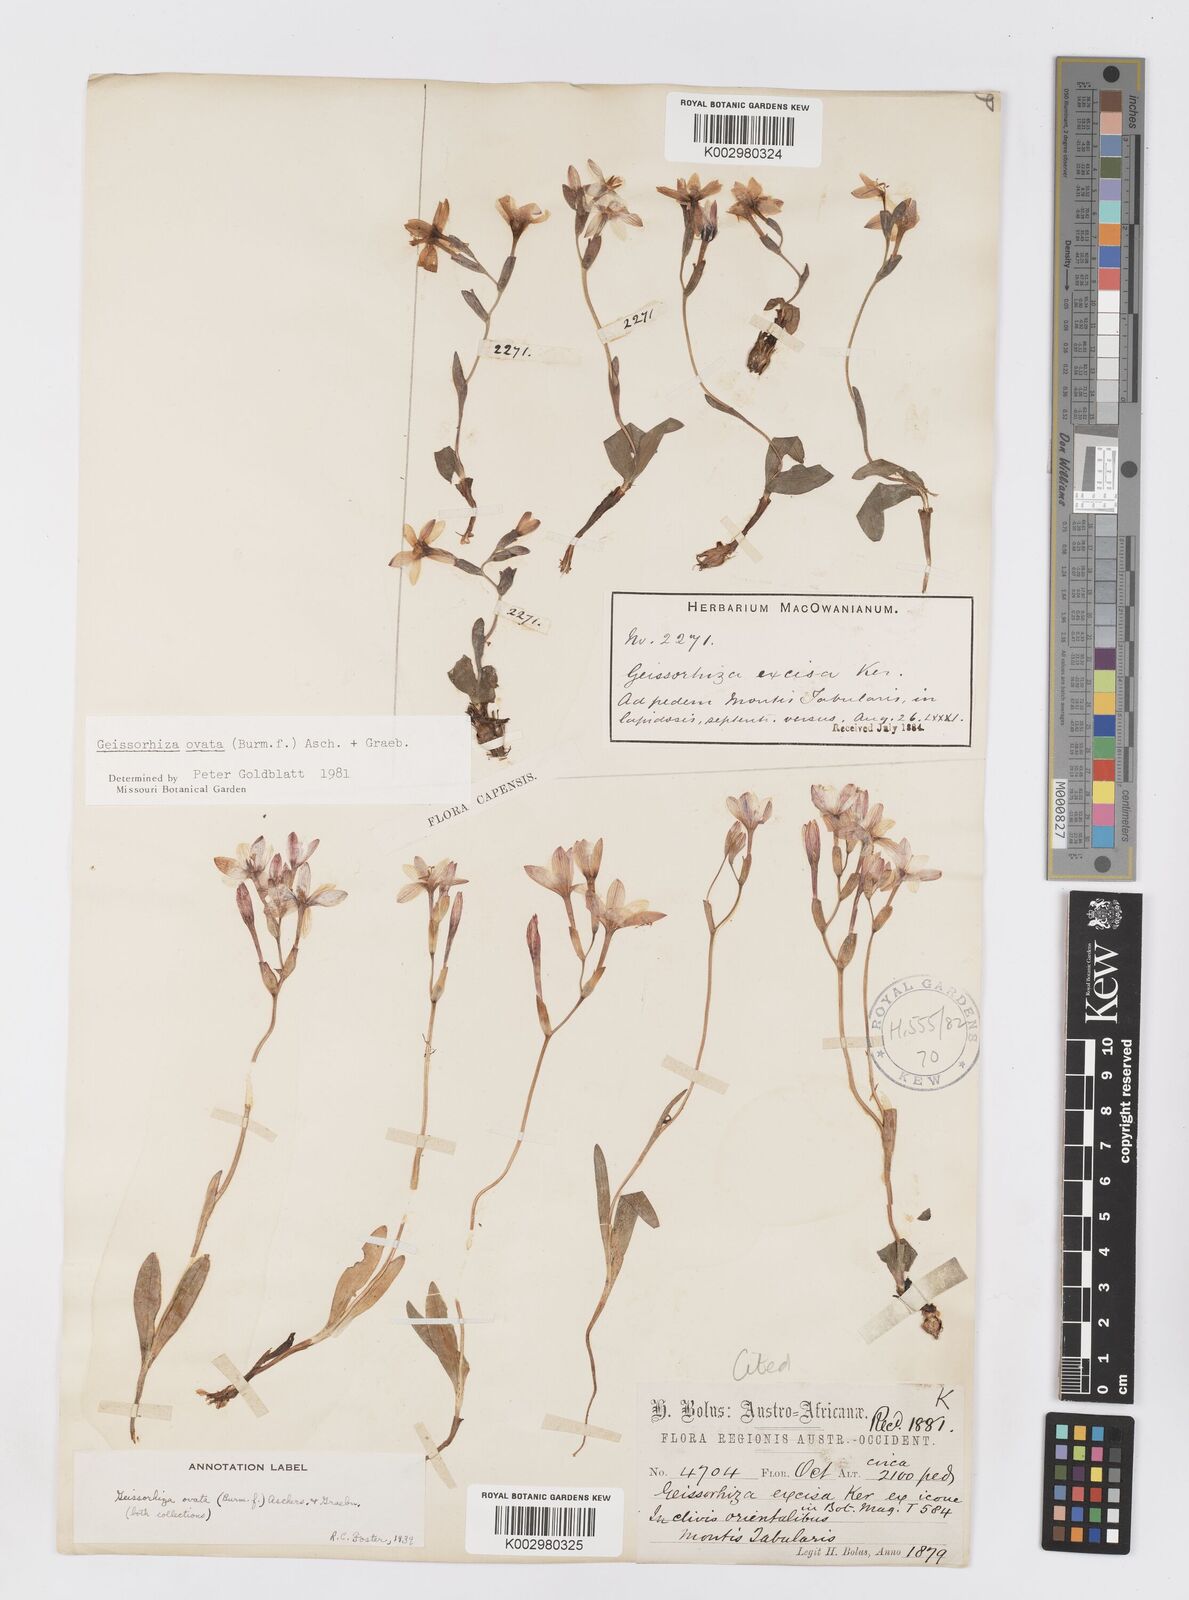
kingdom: Plantae
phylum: Tracheophyta
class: Liliopsida
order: Asparagales
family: Iridaceae
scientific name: Iridaceae
